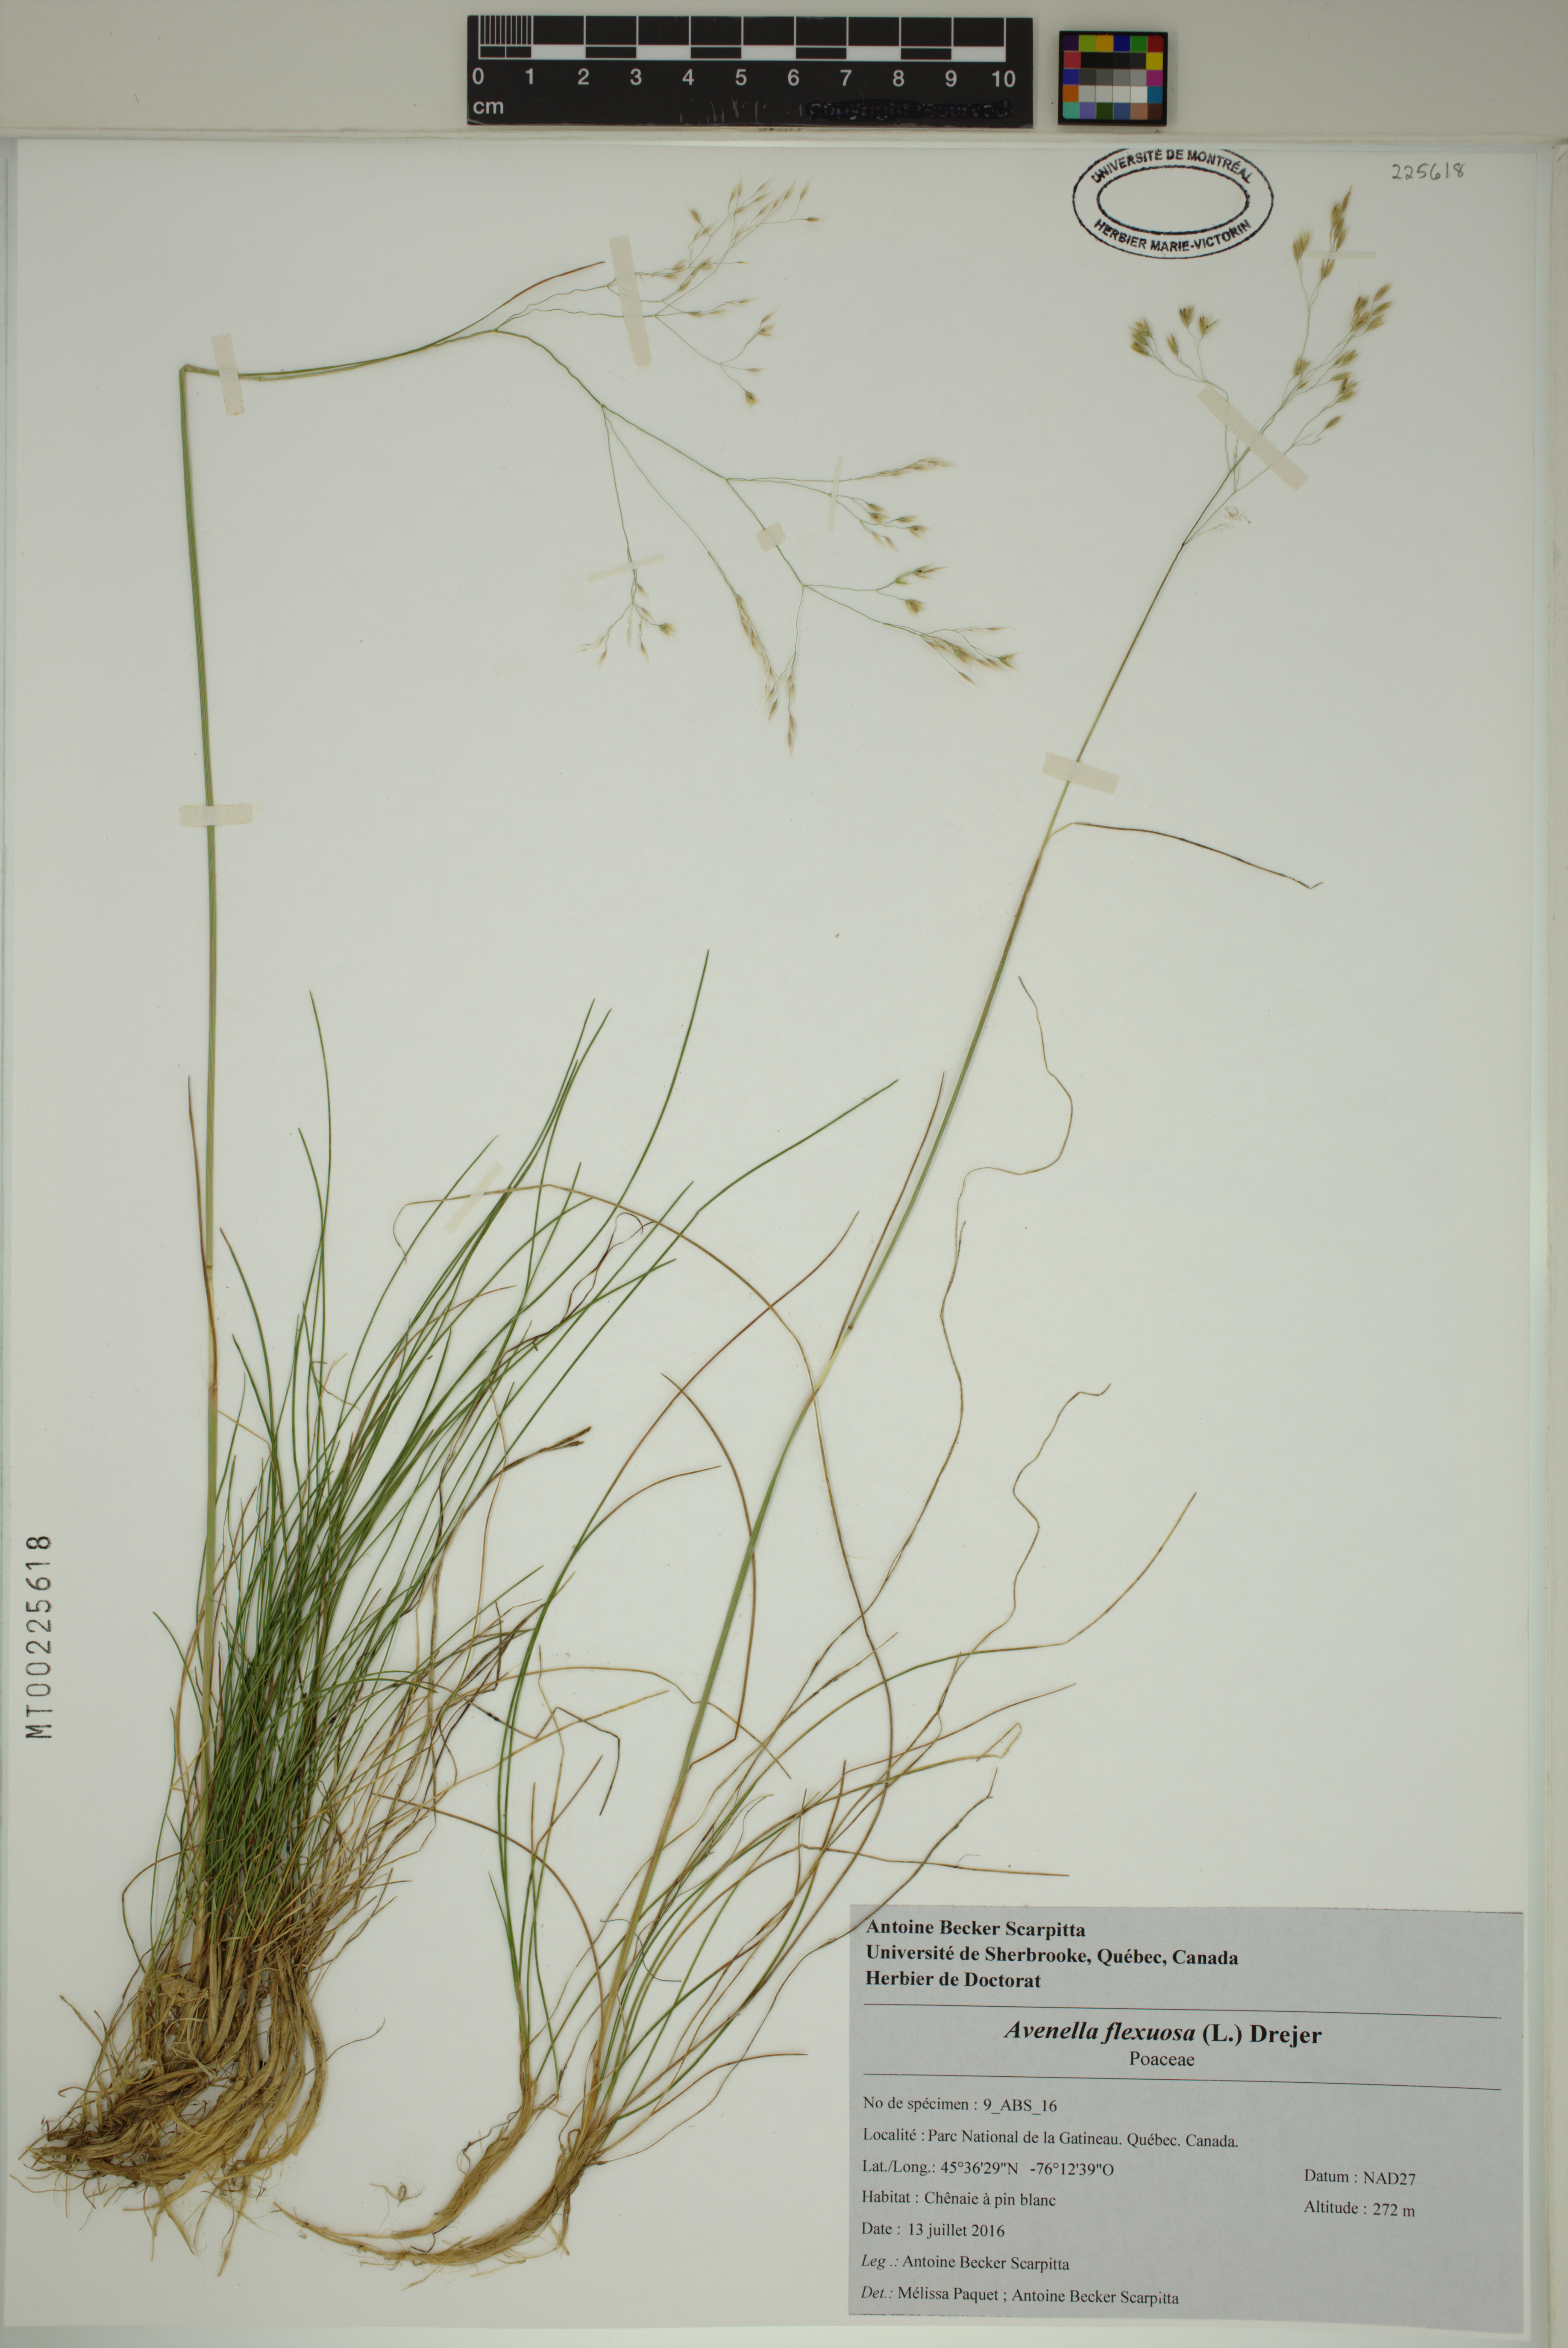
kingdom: Plantae
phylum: Tracheophyta
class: Liliopsida
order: Poales
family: Poaceae
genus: Avenella
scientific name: Avenella flexuosa
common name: Wavy hairgrass
